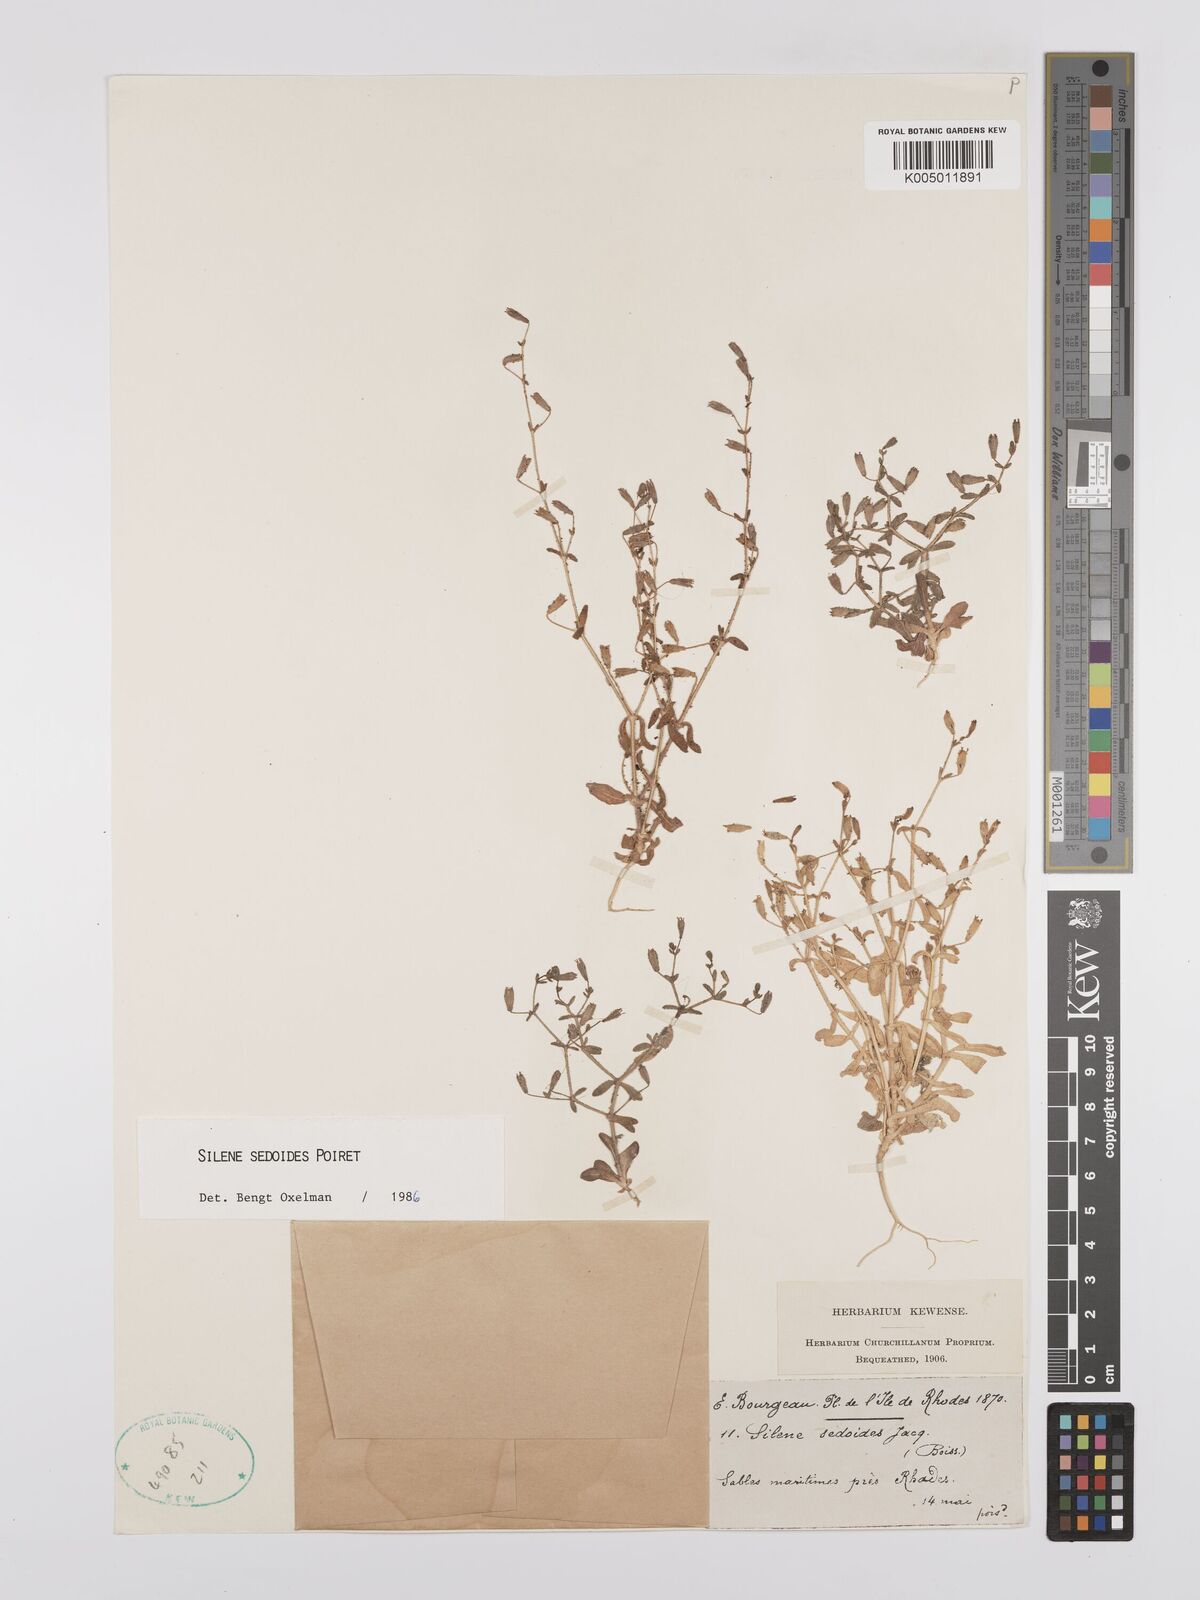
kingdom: Plantae
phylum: Tracheophyta
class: Magnoliopsida
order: Caryophyllales
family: Caryophyllaceae
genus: Silene
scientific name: Silene sedoides
